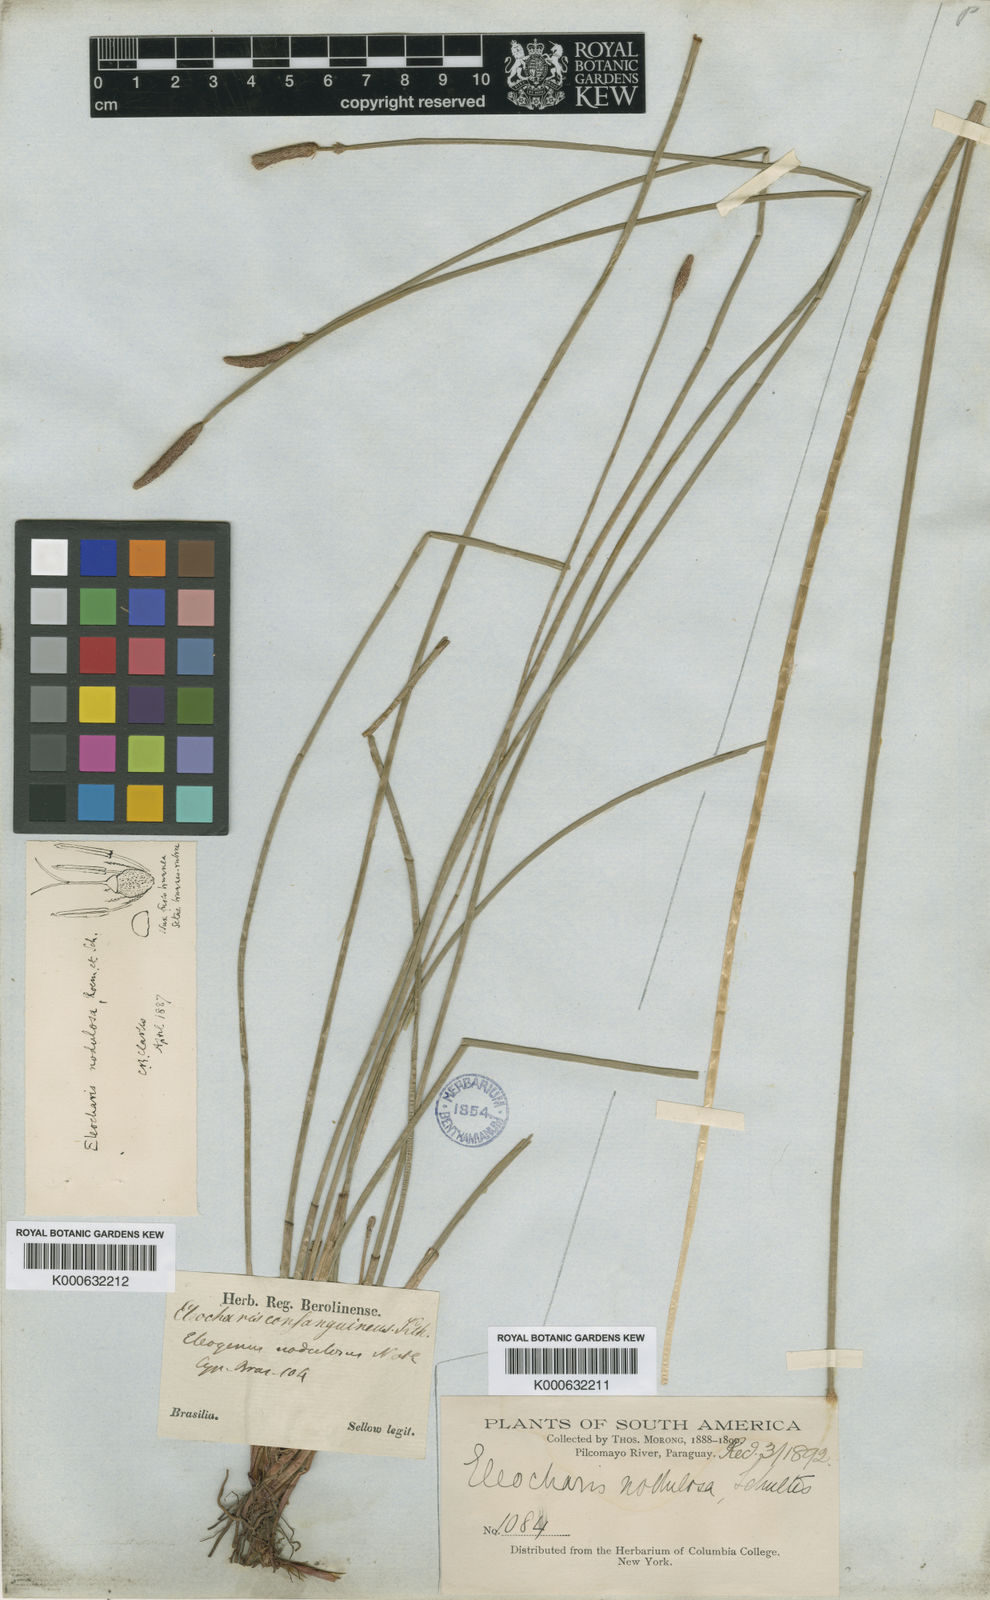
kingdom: Plantae
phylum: Tracheophyta
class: Liliopsida
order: Poales
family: Cyperaceae
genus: Eleocharis
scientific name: Eleocharis montana
